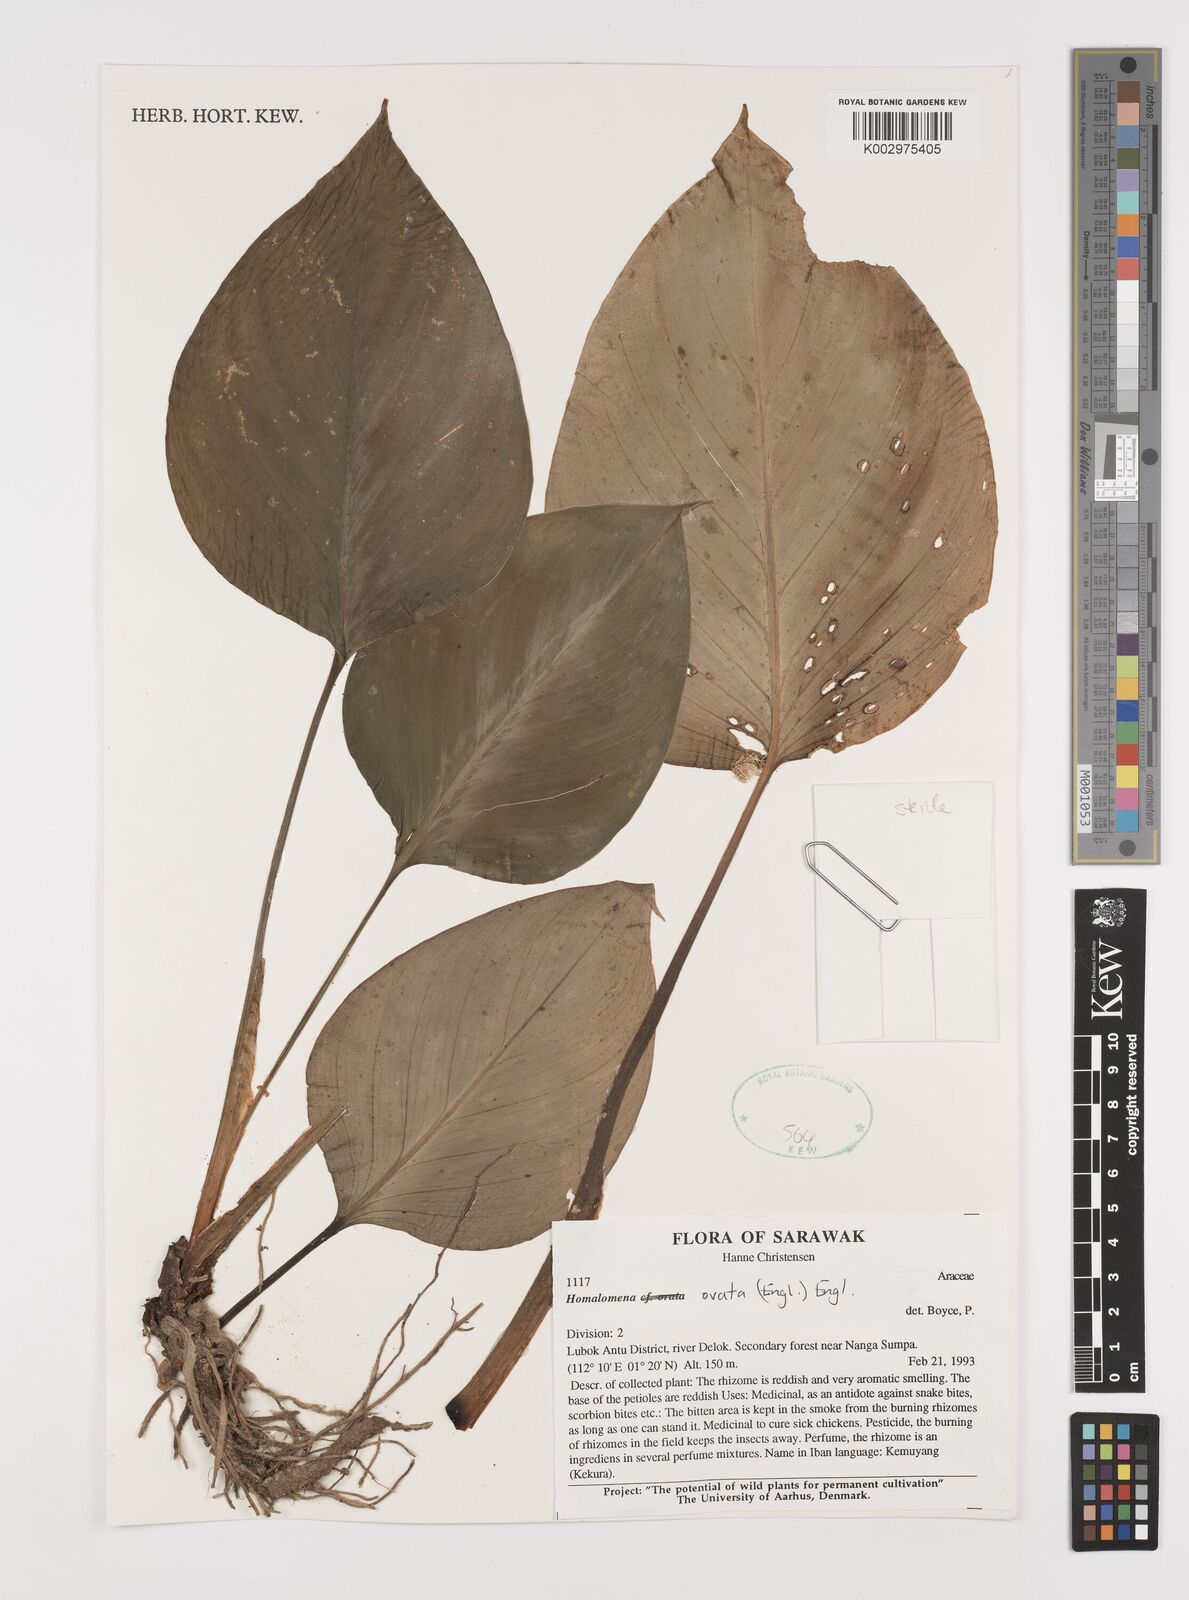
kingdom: Plantae
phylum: Tracheophyta
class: Liliopsida
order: Alismatales
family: Araceae
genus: Homalomena
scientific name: Homalomena ovata
